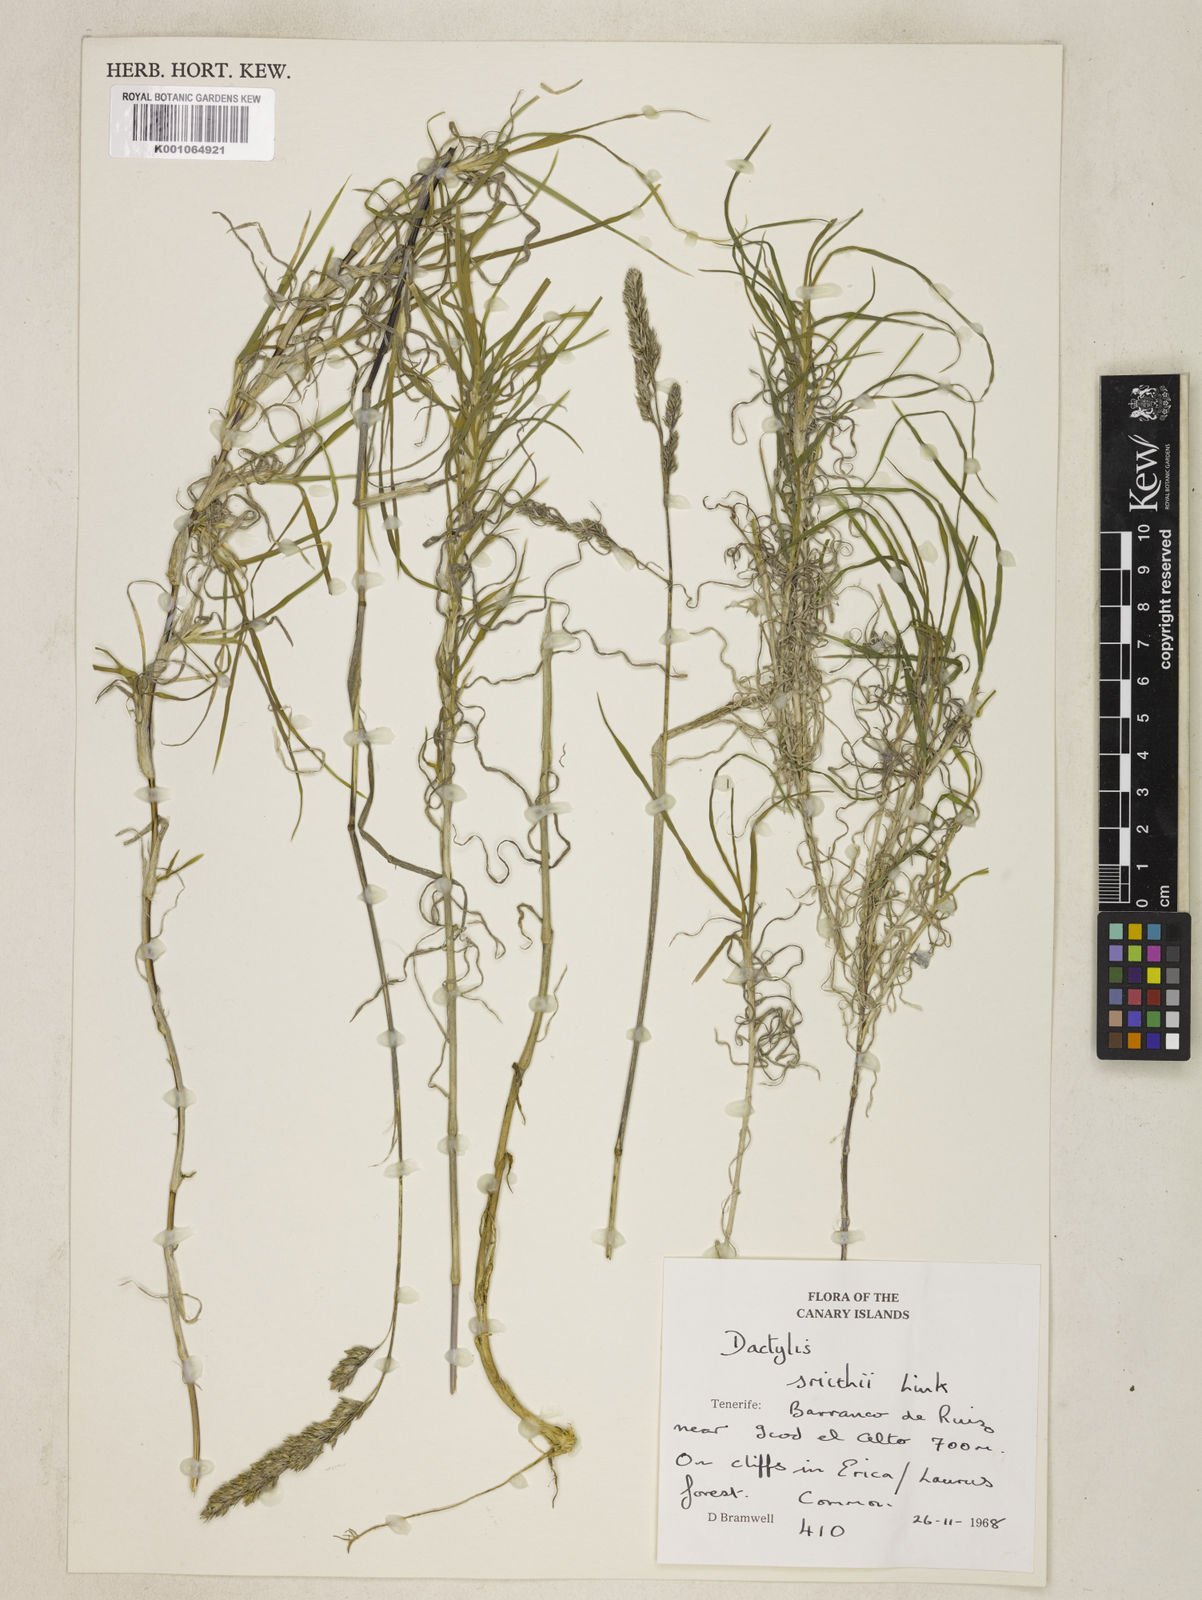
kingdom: Plantae
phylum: Tracheophyta
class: Liliopsida
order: Poales
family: Poaceae
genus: Dactylis
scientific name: Dactylis glomerata
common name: Orchardgrass
